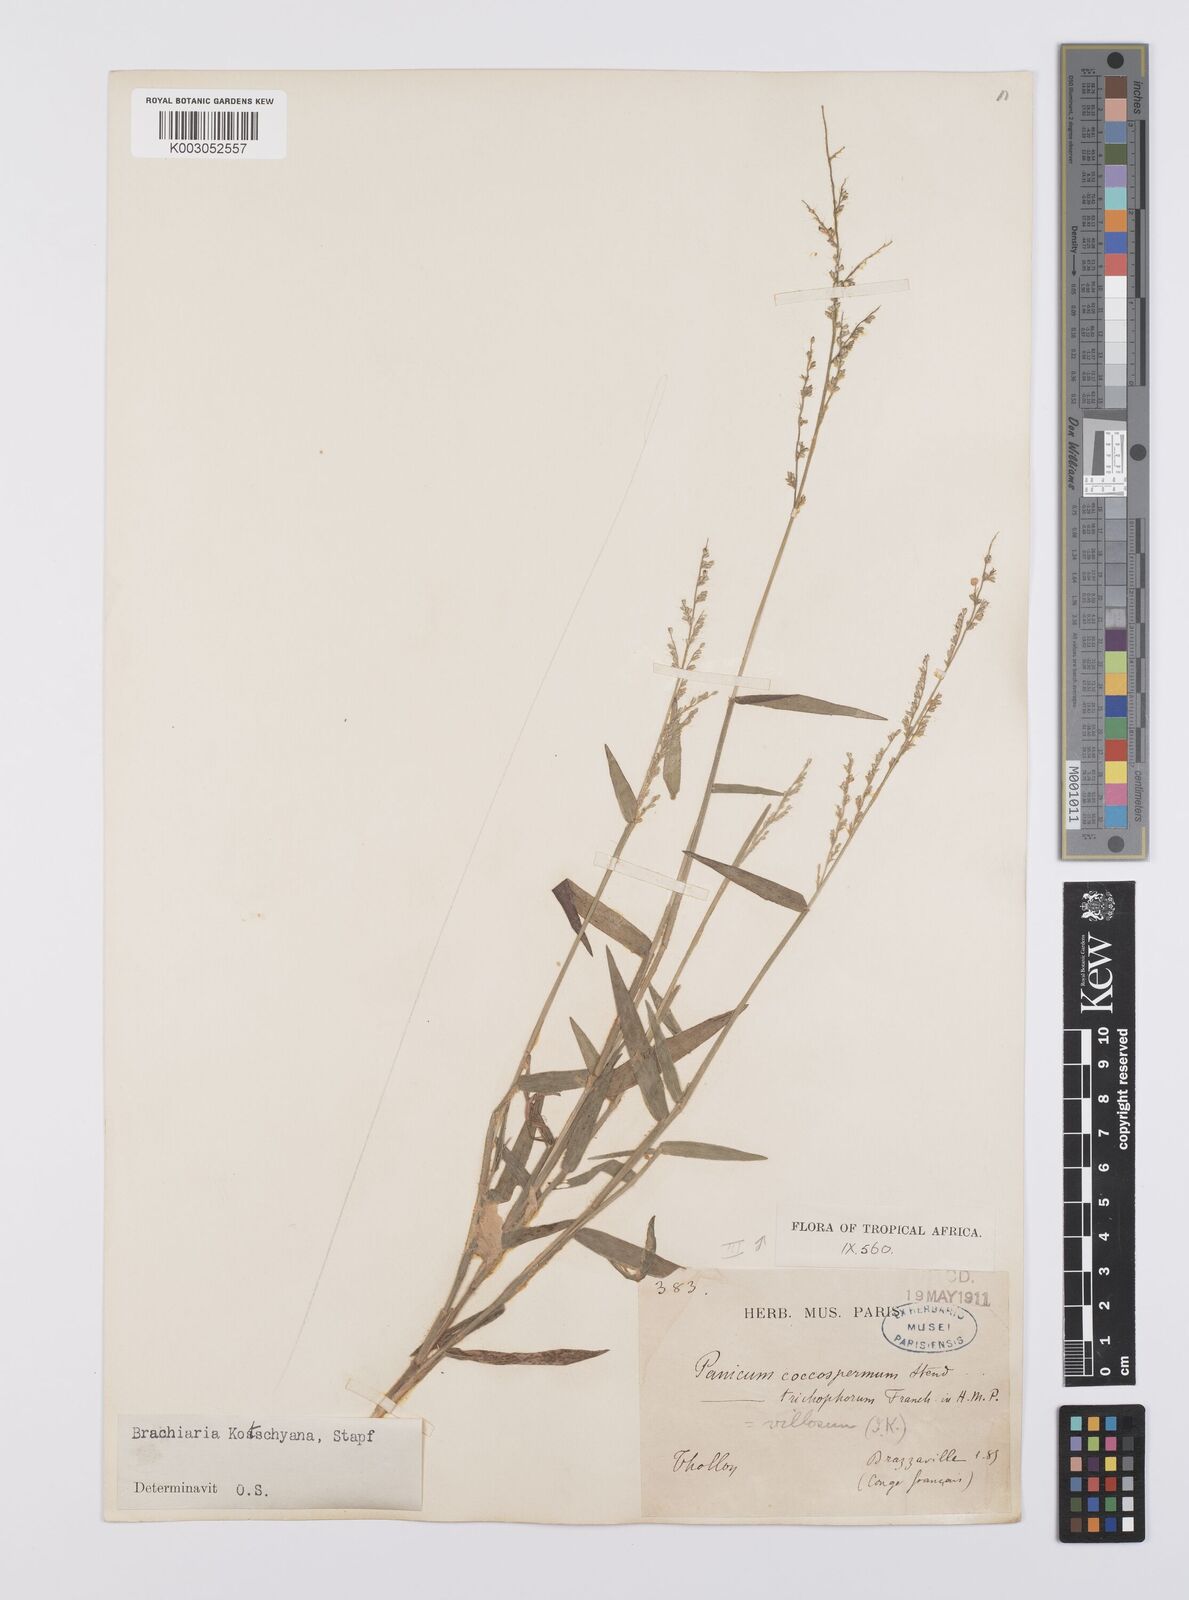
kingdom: Plantae
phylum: Tracheophyta
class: Liliopsida
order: Poales
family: Poaceae
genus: Urochloa
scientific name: Urochloa comata
